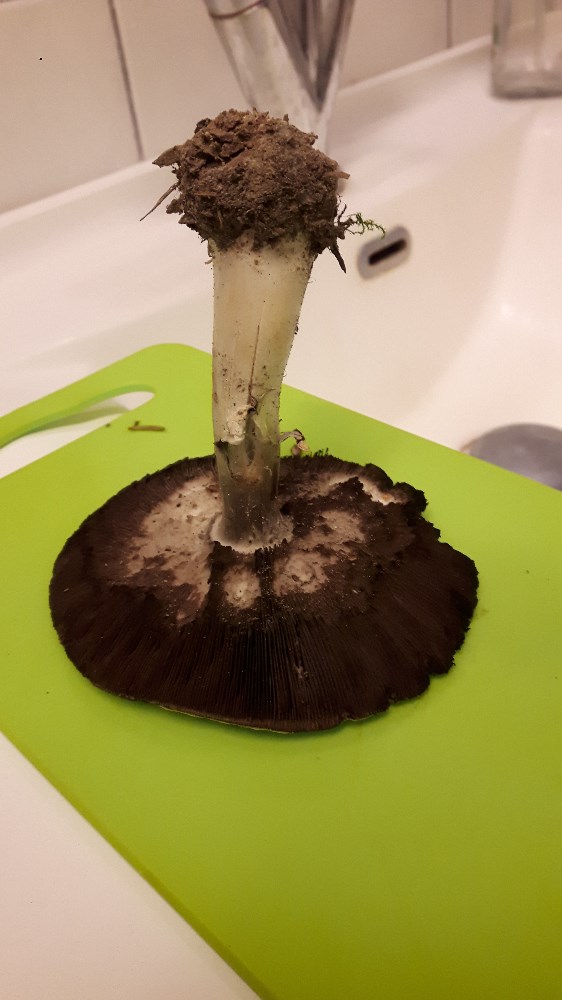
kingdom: Fungi
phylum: Basidiomycota
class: Agaricomycetes
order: Agaricales
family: Agaricaceae
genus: Agaricus
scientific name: Agaricus
